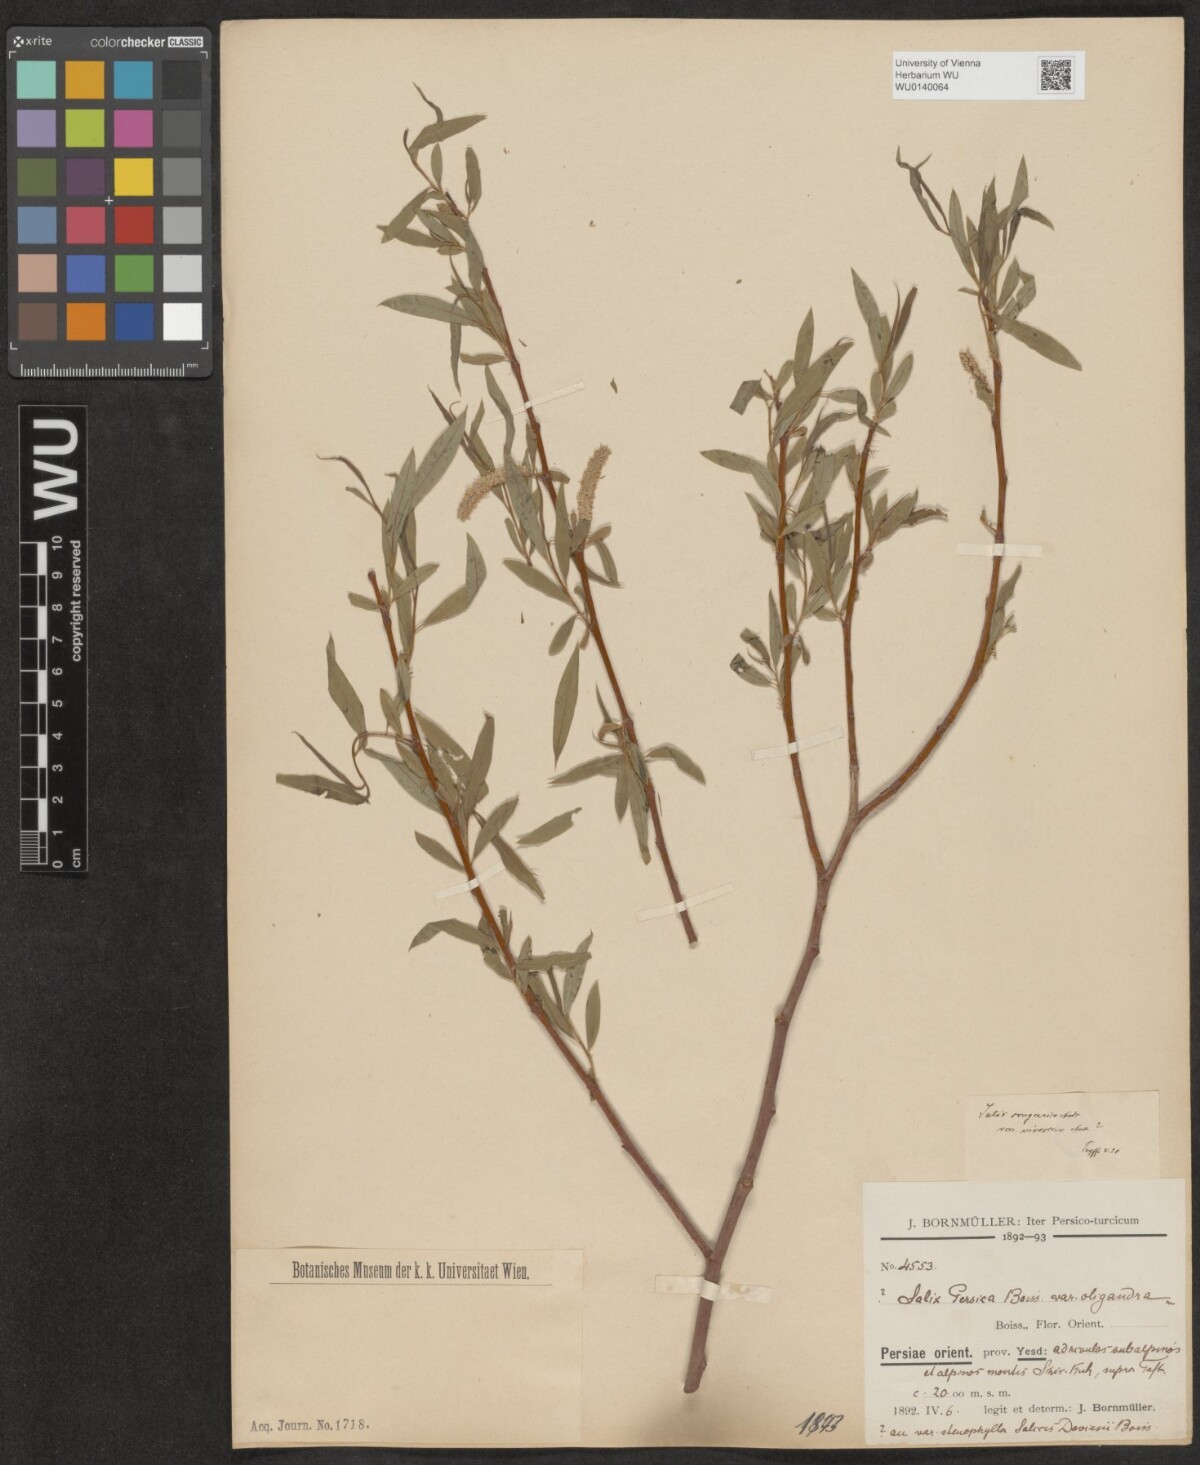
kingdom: Plantae
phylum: Tracheophyta
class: Magnoliopsida
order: Malpighiales
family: Salicaceae
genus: Salix
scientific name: Salix songarica
